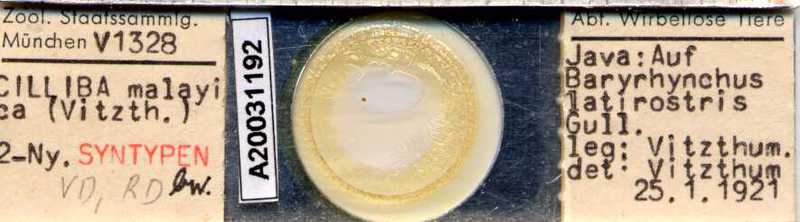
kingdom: Animalia
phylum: Arthropoda
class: Arachnida
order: Mesostigmata
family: Uropodidae
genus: Cilliba
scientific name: Cilliba
